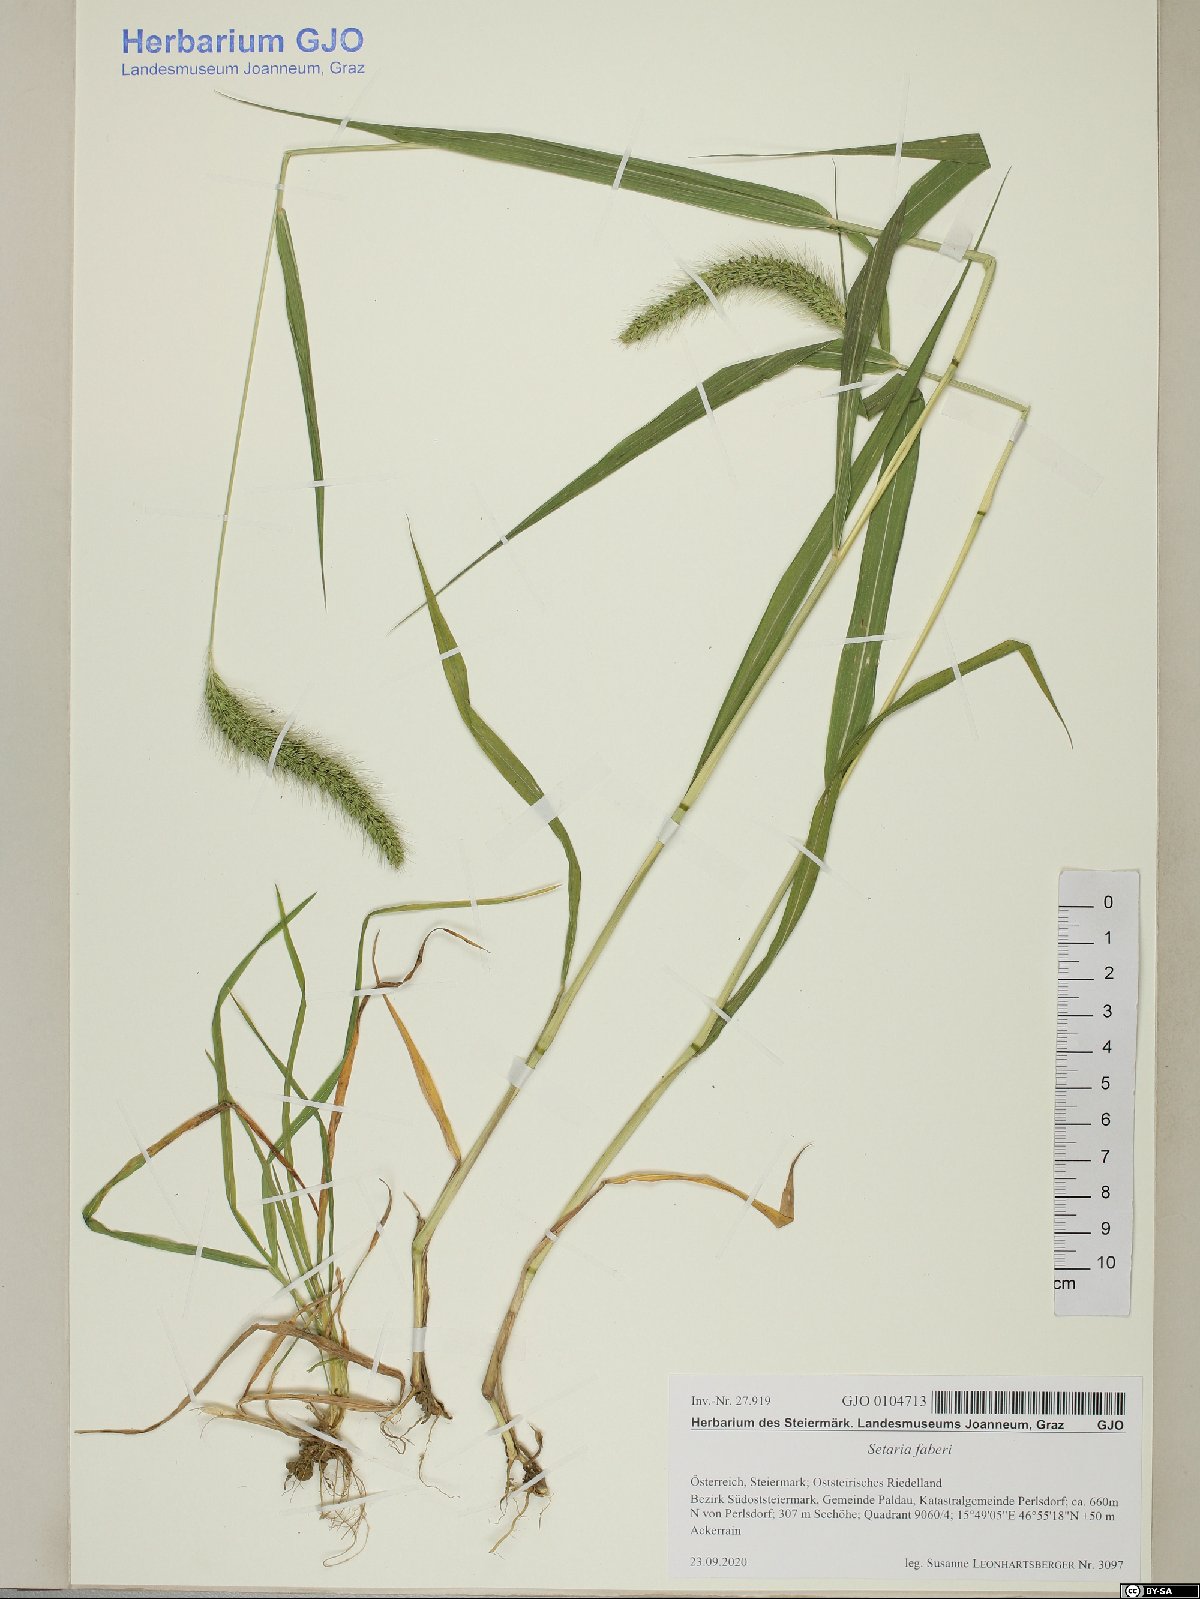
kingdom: Plantae
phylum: Tracheophyta
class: Liliopsida
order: Poales
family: Poaceae
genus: Setaria
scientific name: Setaria faberi
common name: Nodding bristle-grass
